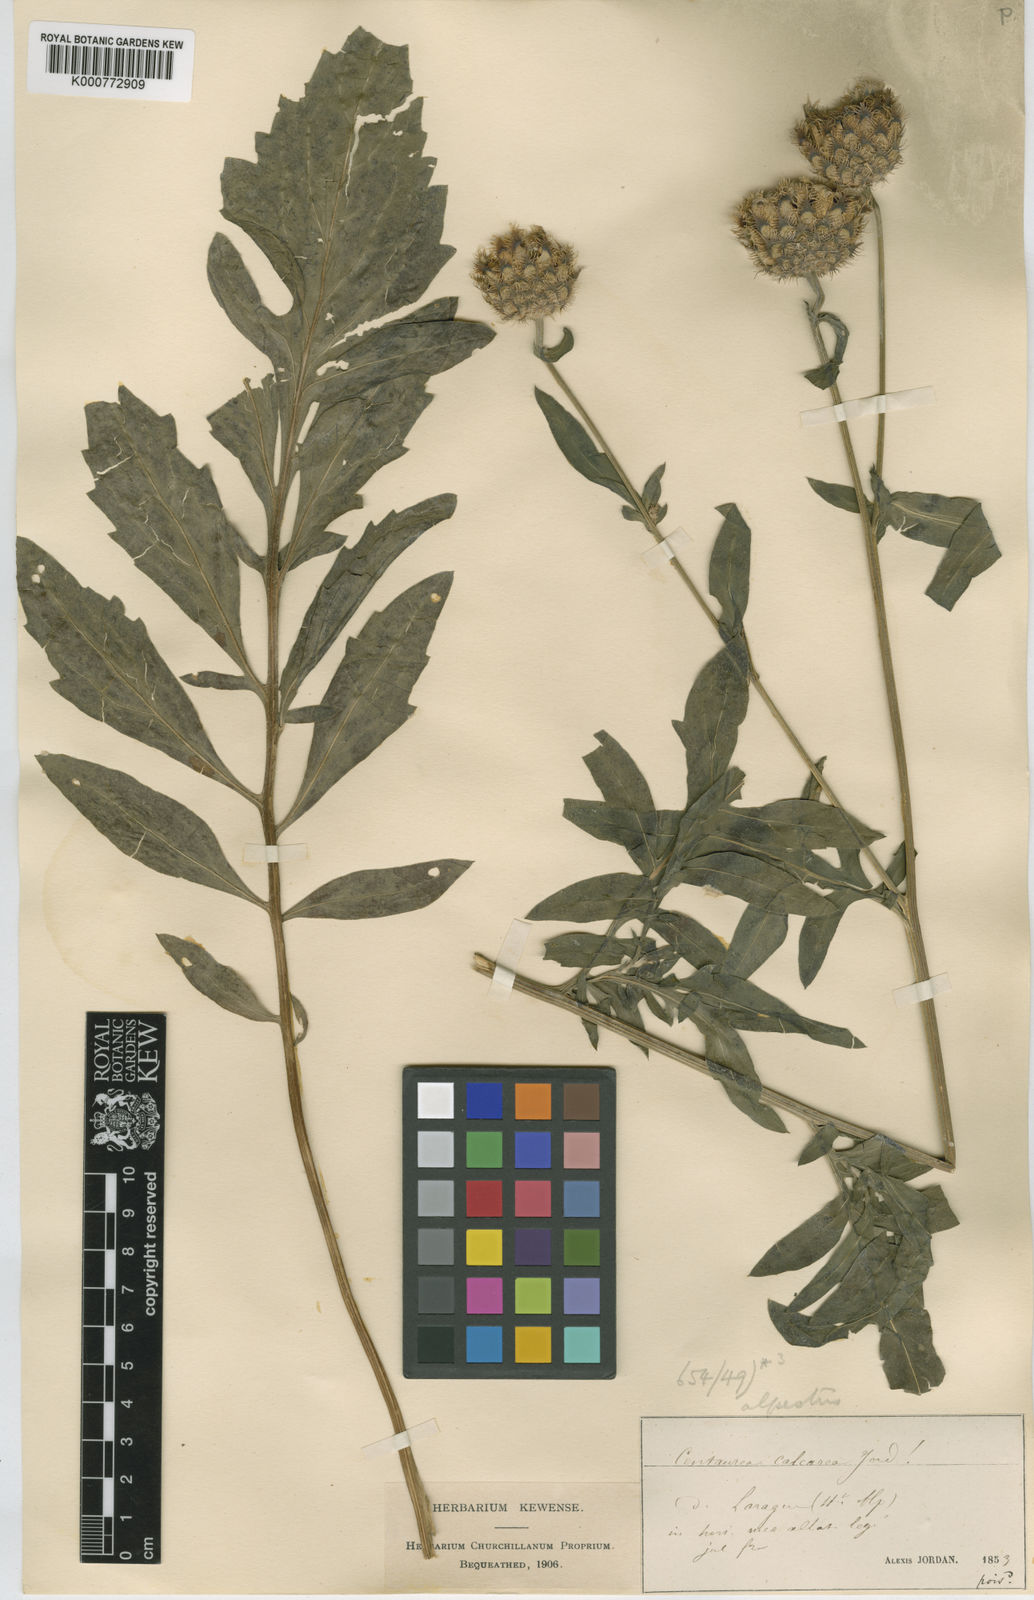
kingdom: Plantae
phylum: Tracheophyta
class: Magnoliopsida
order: Asterales
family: Asteraceae
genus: Centaurea
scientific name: Centaurea scabiosa
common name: Greater knapweed
